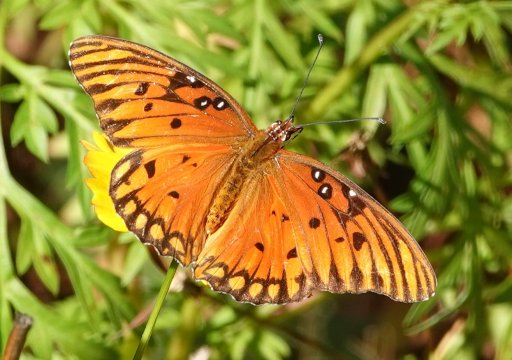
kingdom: Animalia
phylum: Arthropoda
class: Insecta
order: Lepidoptera
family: Nymphalidae
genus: Dione
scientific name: Dione vanillae
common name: Gulf Fritillary
